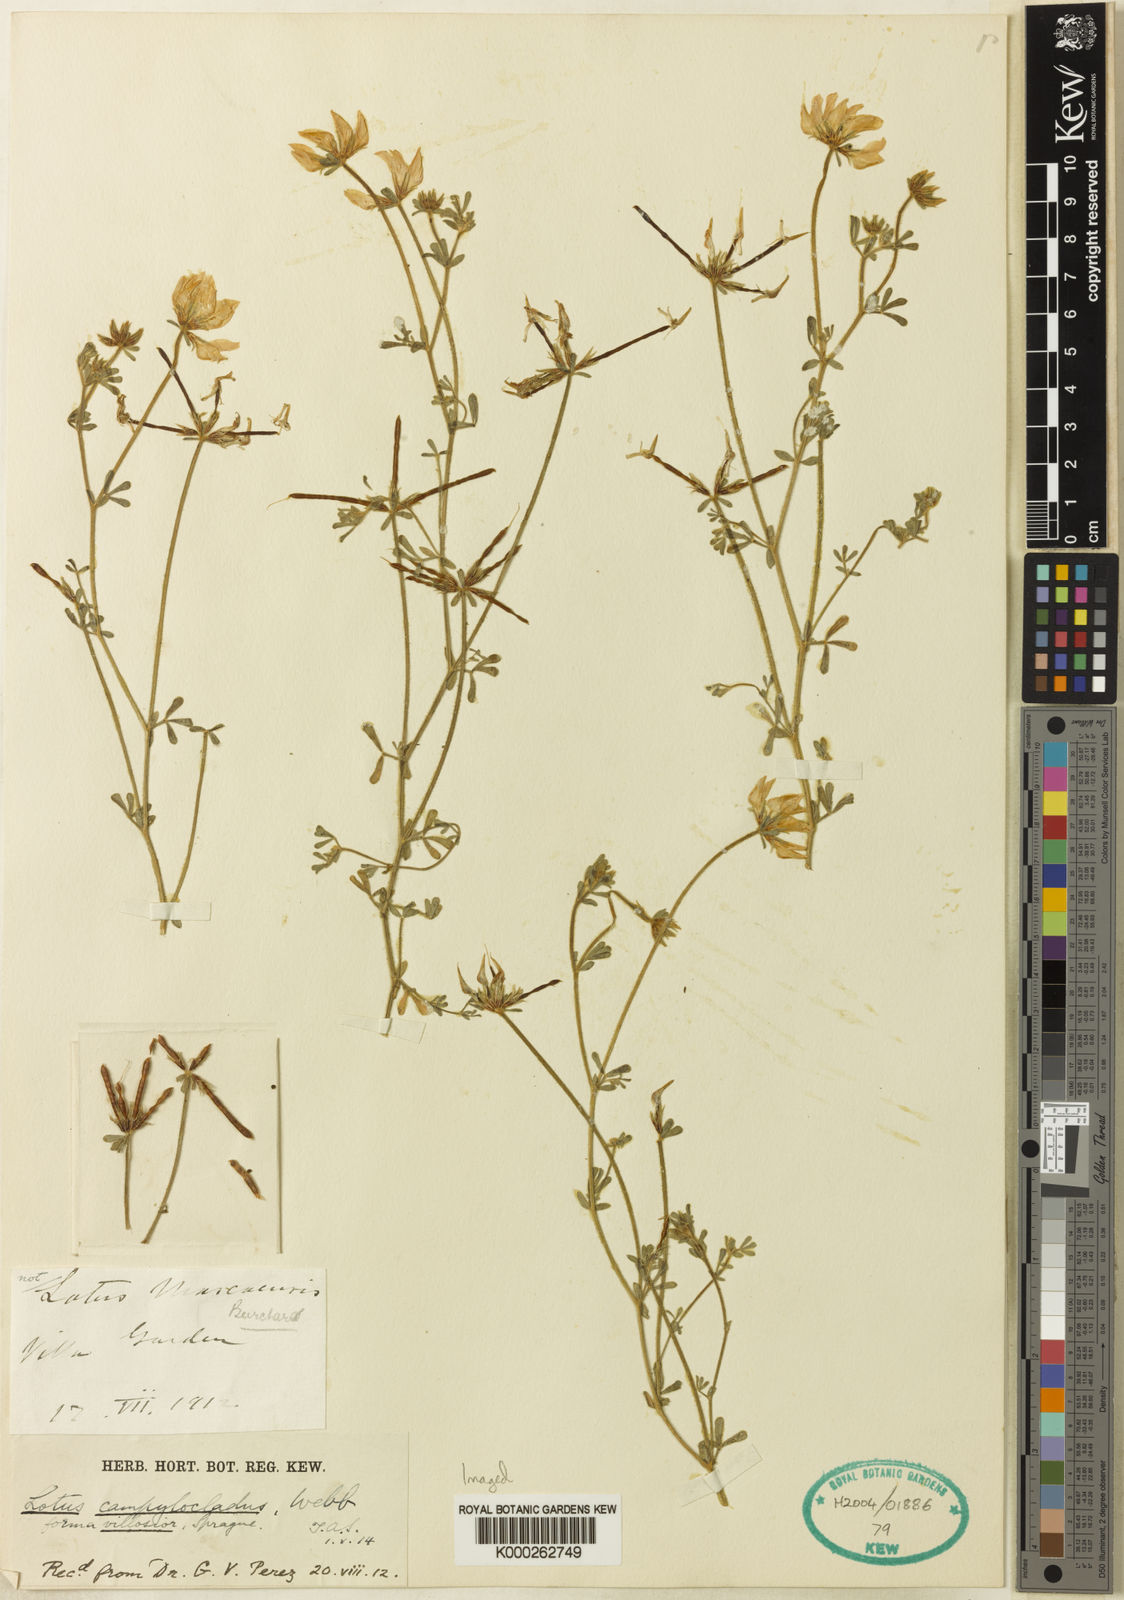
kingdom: Plantae
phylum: Tracheophyta
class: Magnoliopsida
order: Fabales
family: Fabaceae
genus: Lotus
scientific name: Lotus campylocladus
